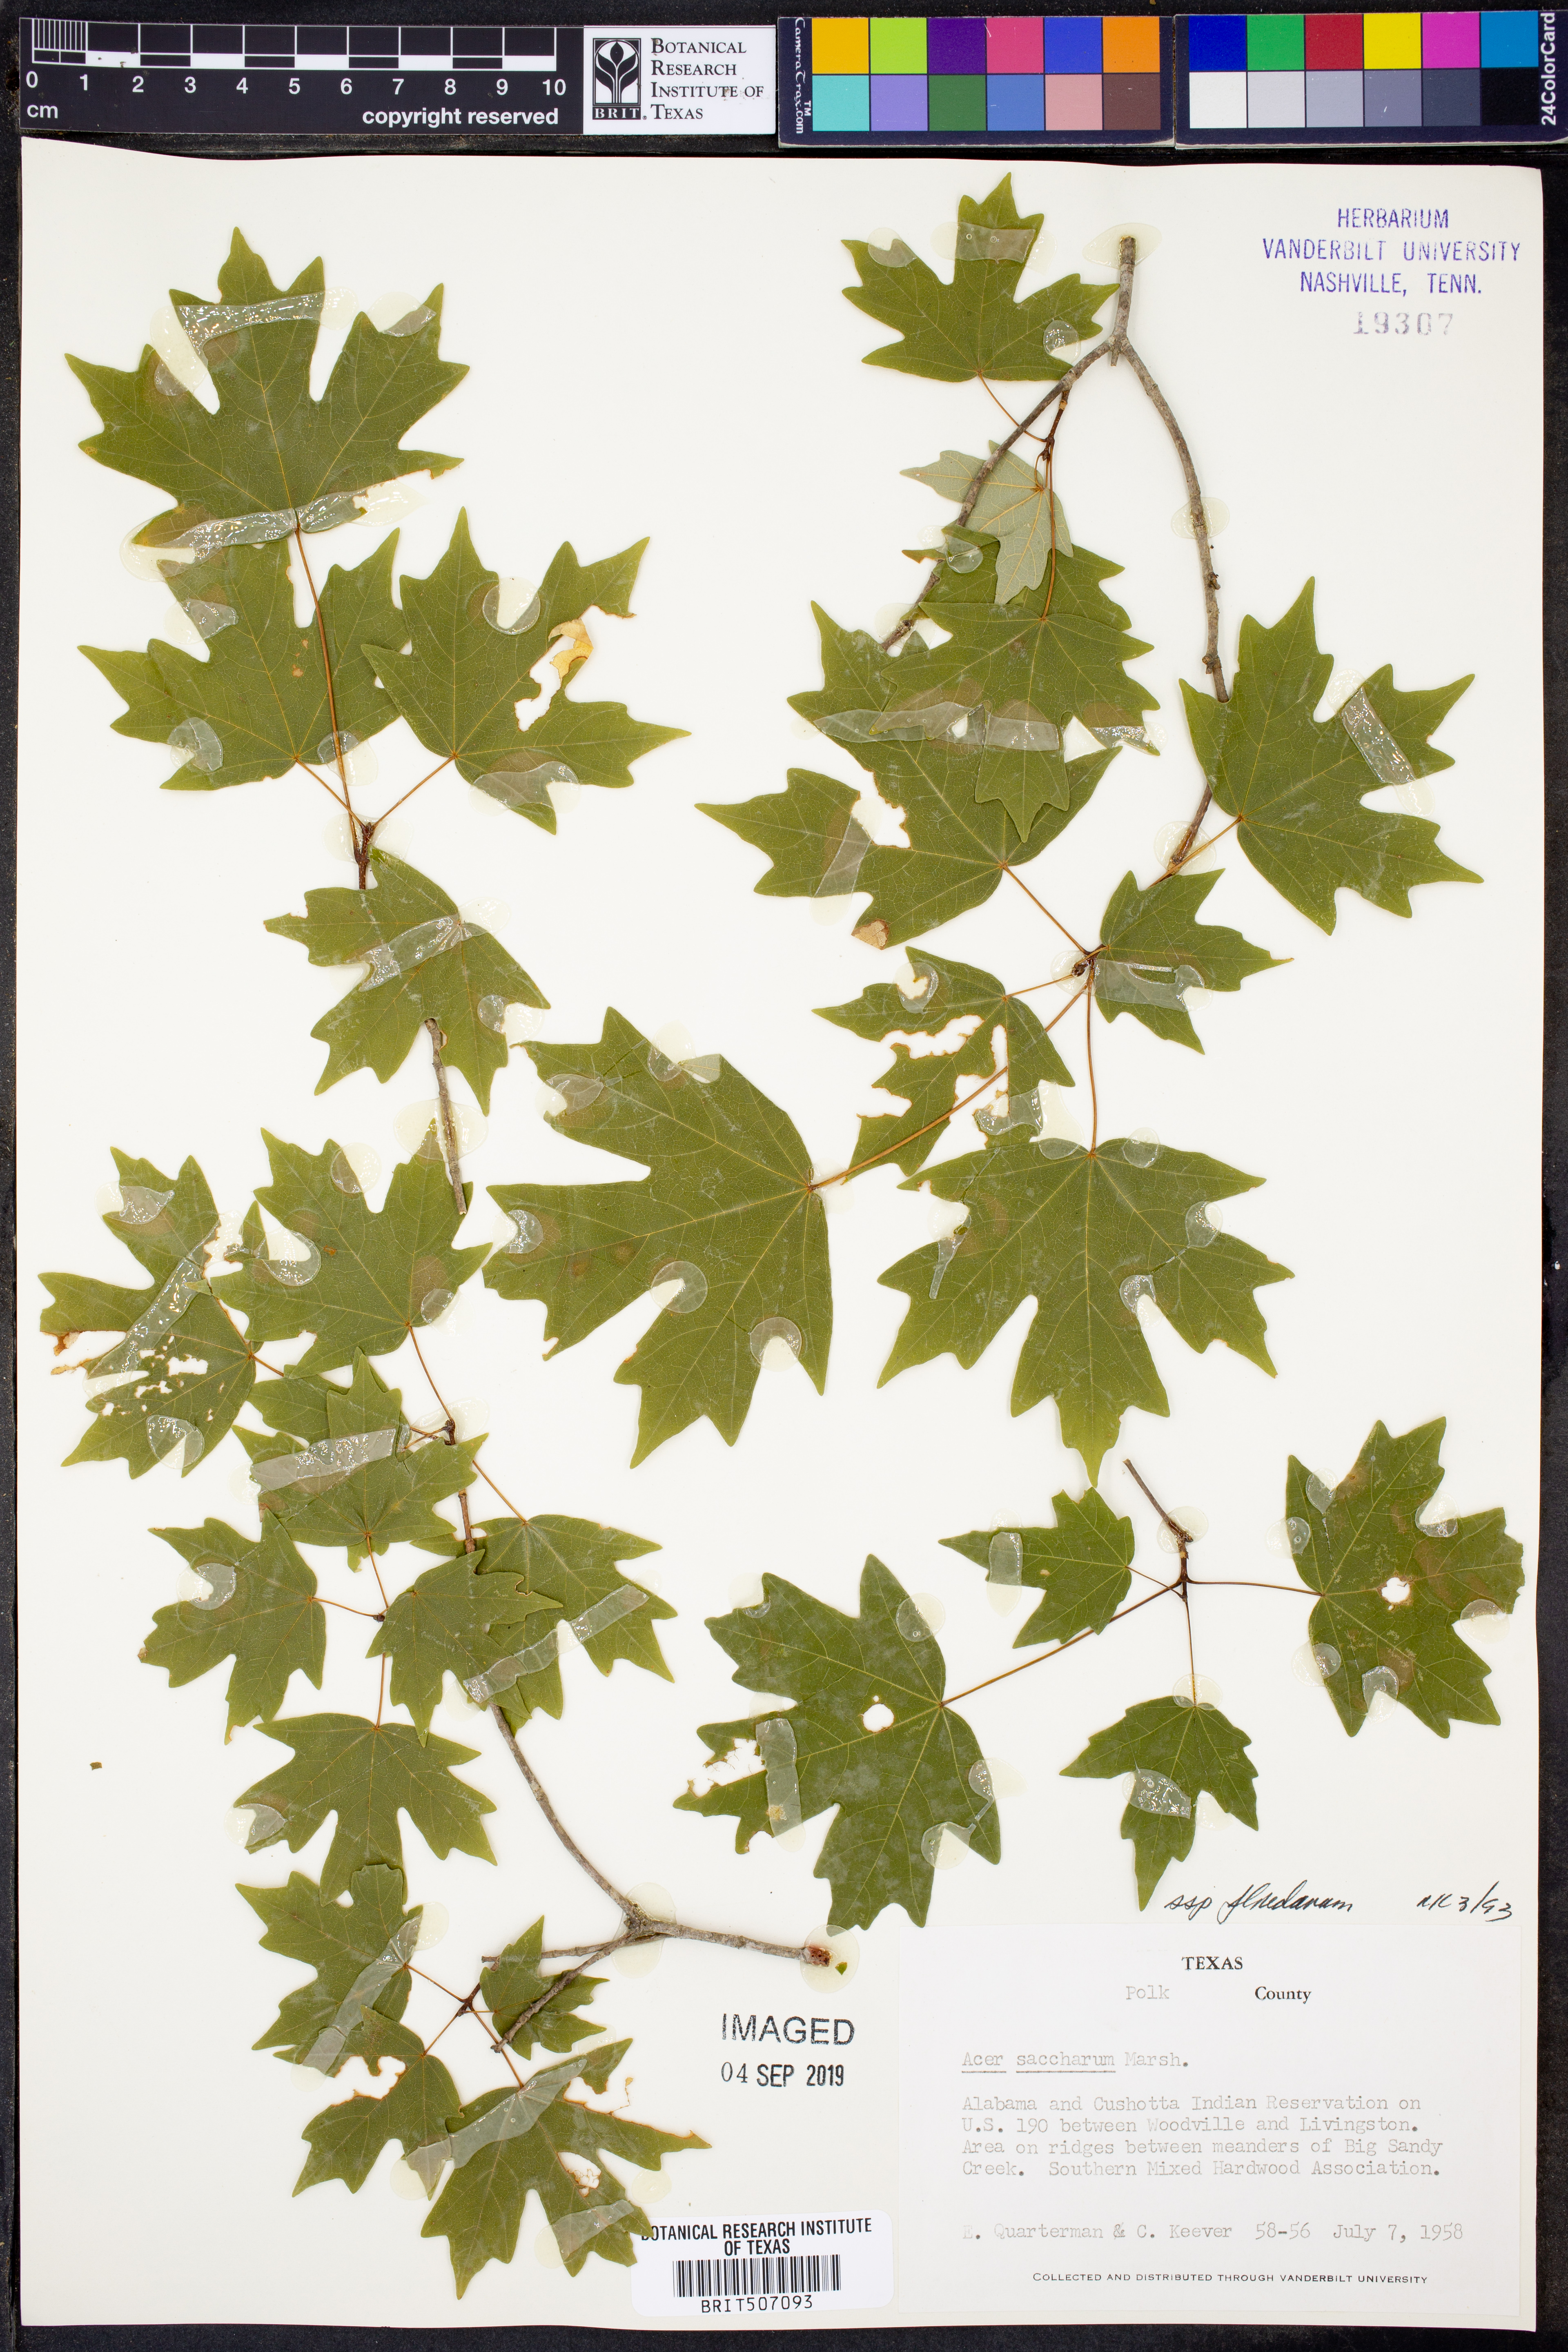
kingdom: Plantae
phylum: Tracheophyta
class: Magnoliopsida
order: Sapindales
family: Sapindaceae
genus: Acer
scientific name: Acer barbatum
